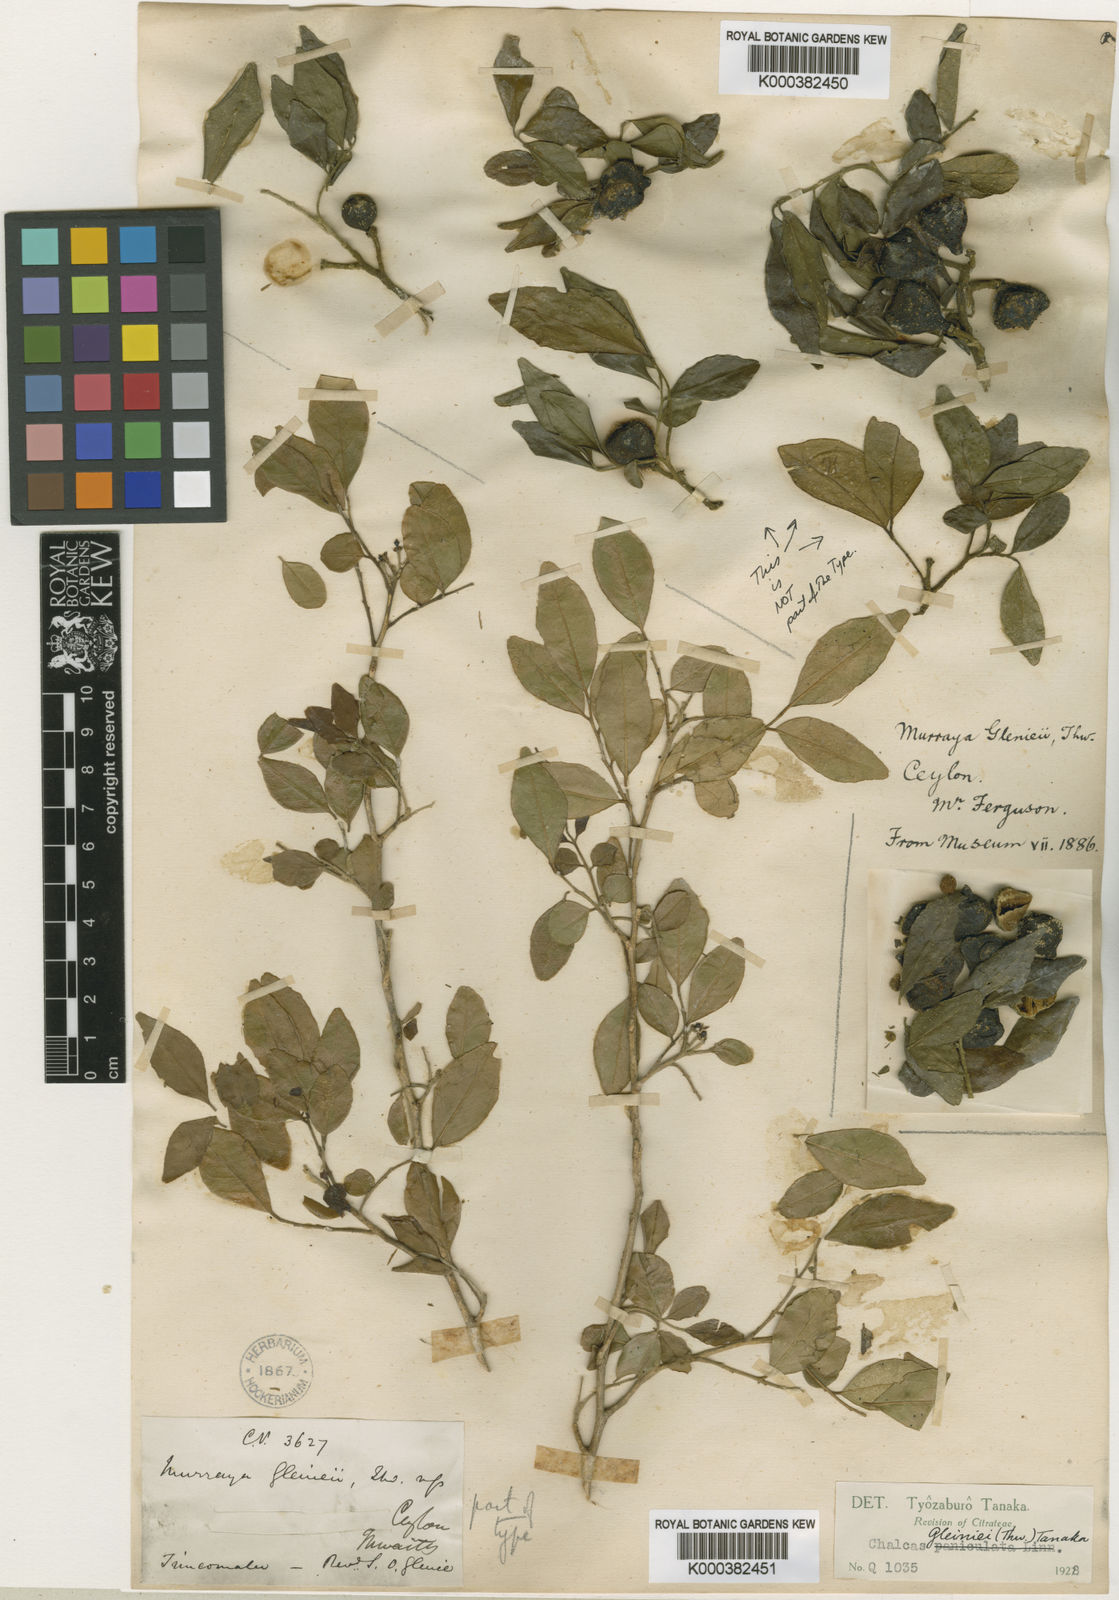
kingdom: Plantae
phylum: Tracheophyta
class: Magnoliopsida
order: Sapindales
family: Rutaceae
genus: Murraya
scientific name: Murraya glenieii
